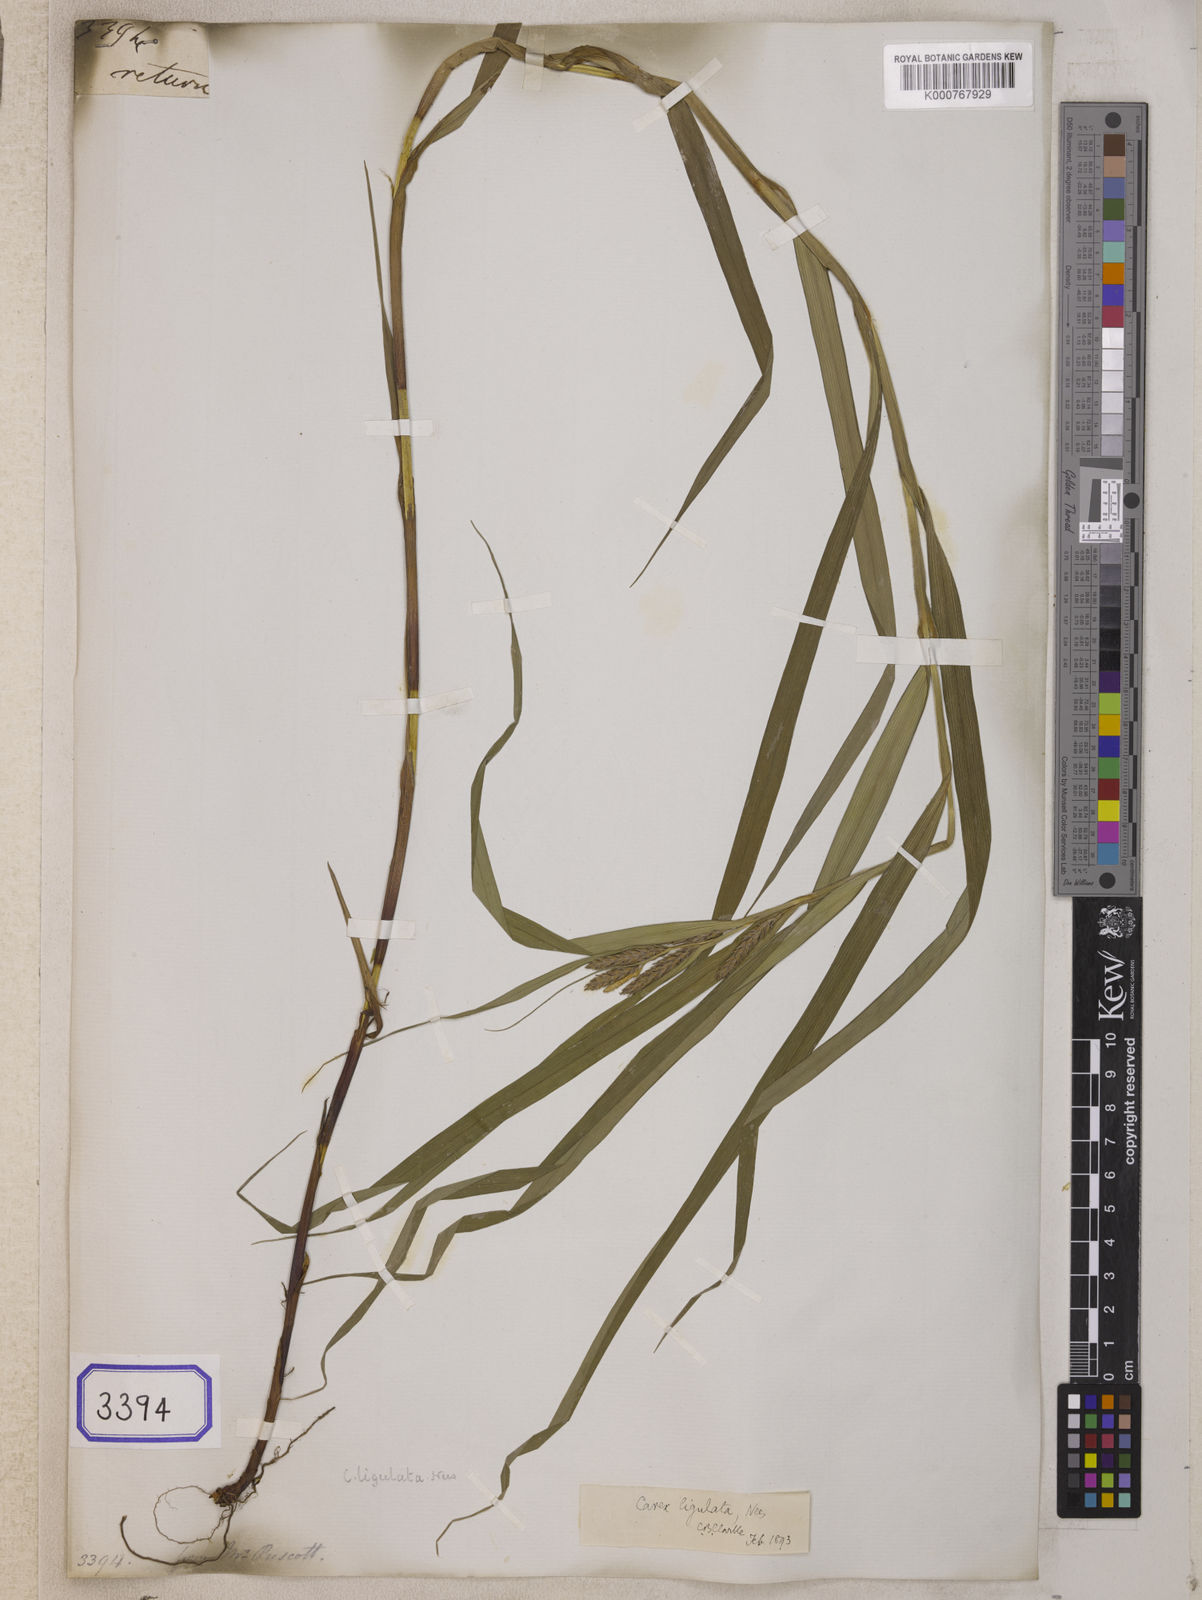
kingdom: Plantae
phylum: Tracheophyta
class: Liliopsida
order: Poales
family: Cyperaceae
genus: Carex
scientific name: Carex
